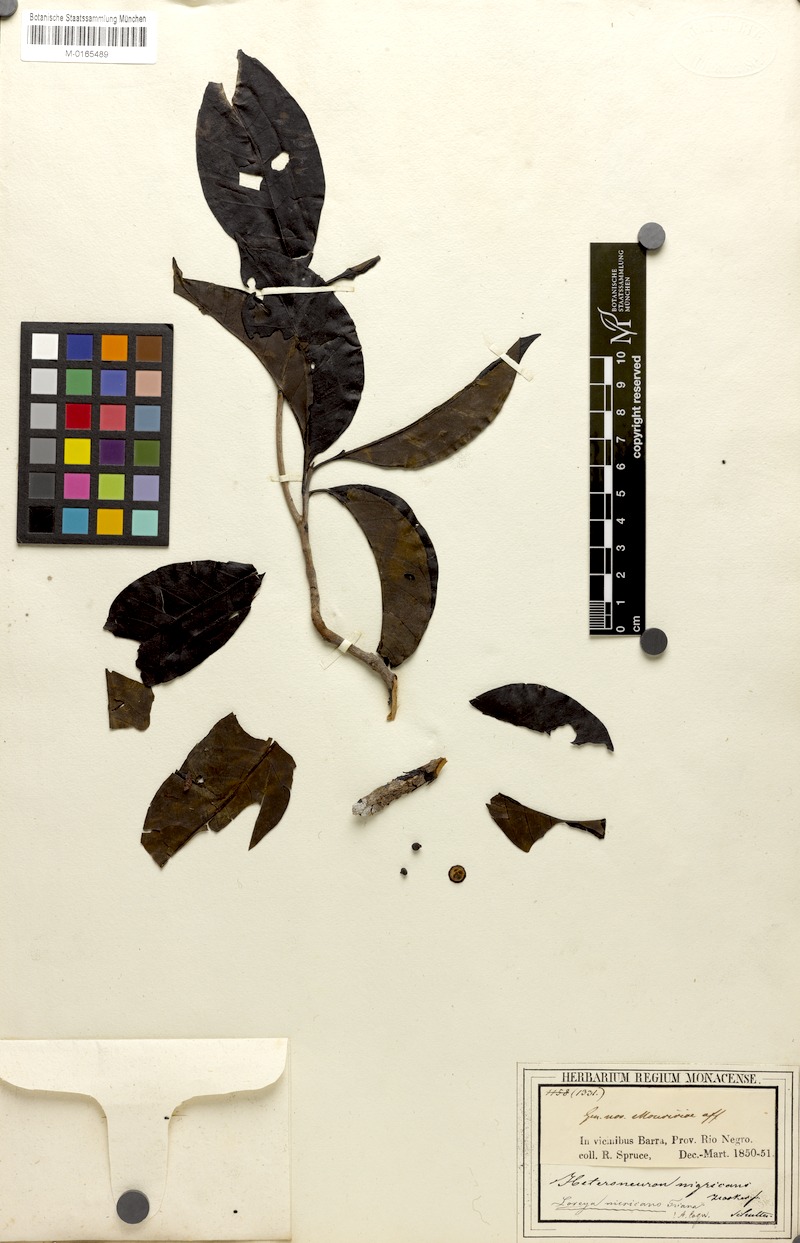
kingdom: Plantae
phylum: Tracheophyta
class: Magnoliopsida
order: Myrtales
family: Melastomataceae
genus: Bellucia
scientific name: Bellucia nigricans
